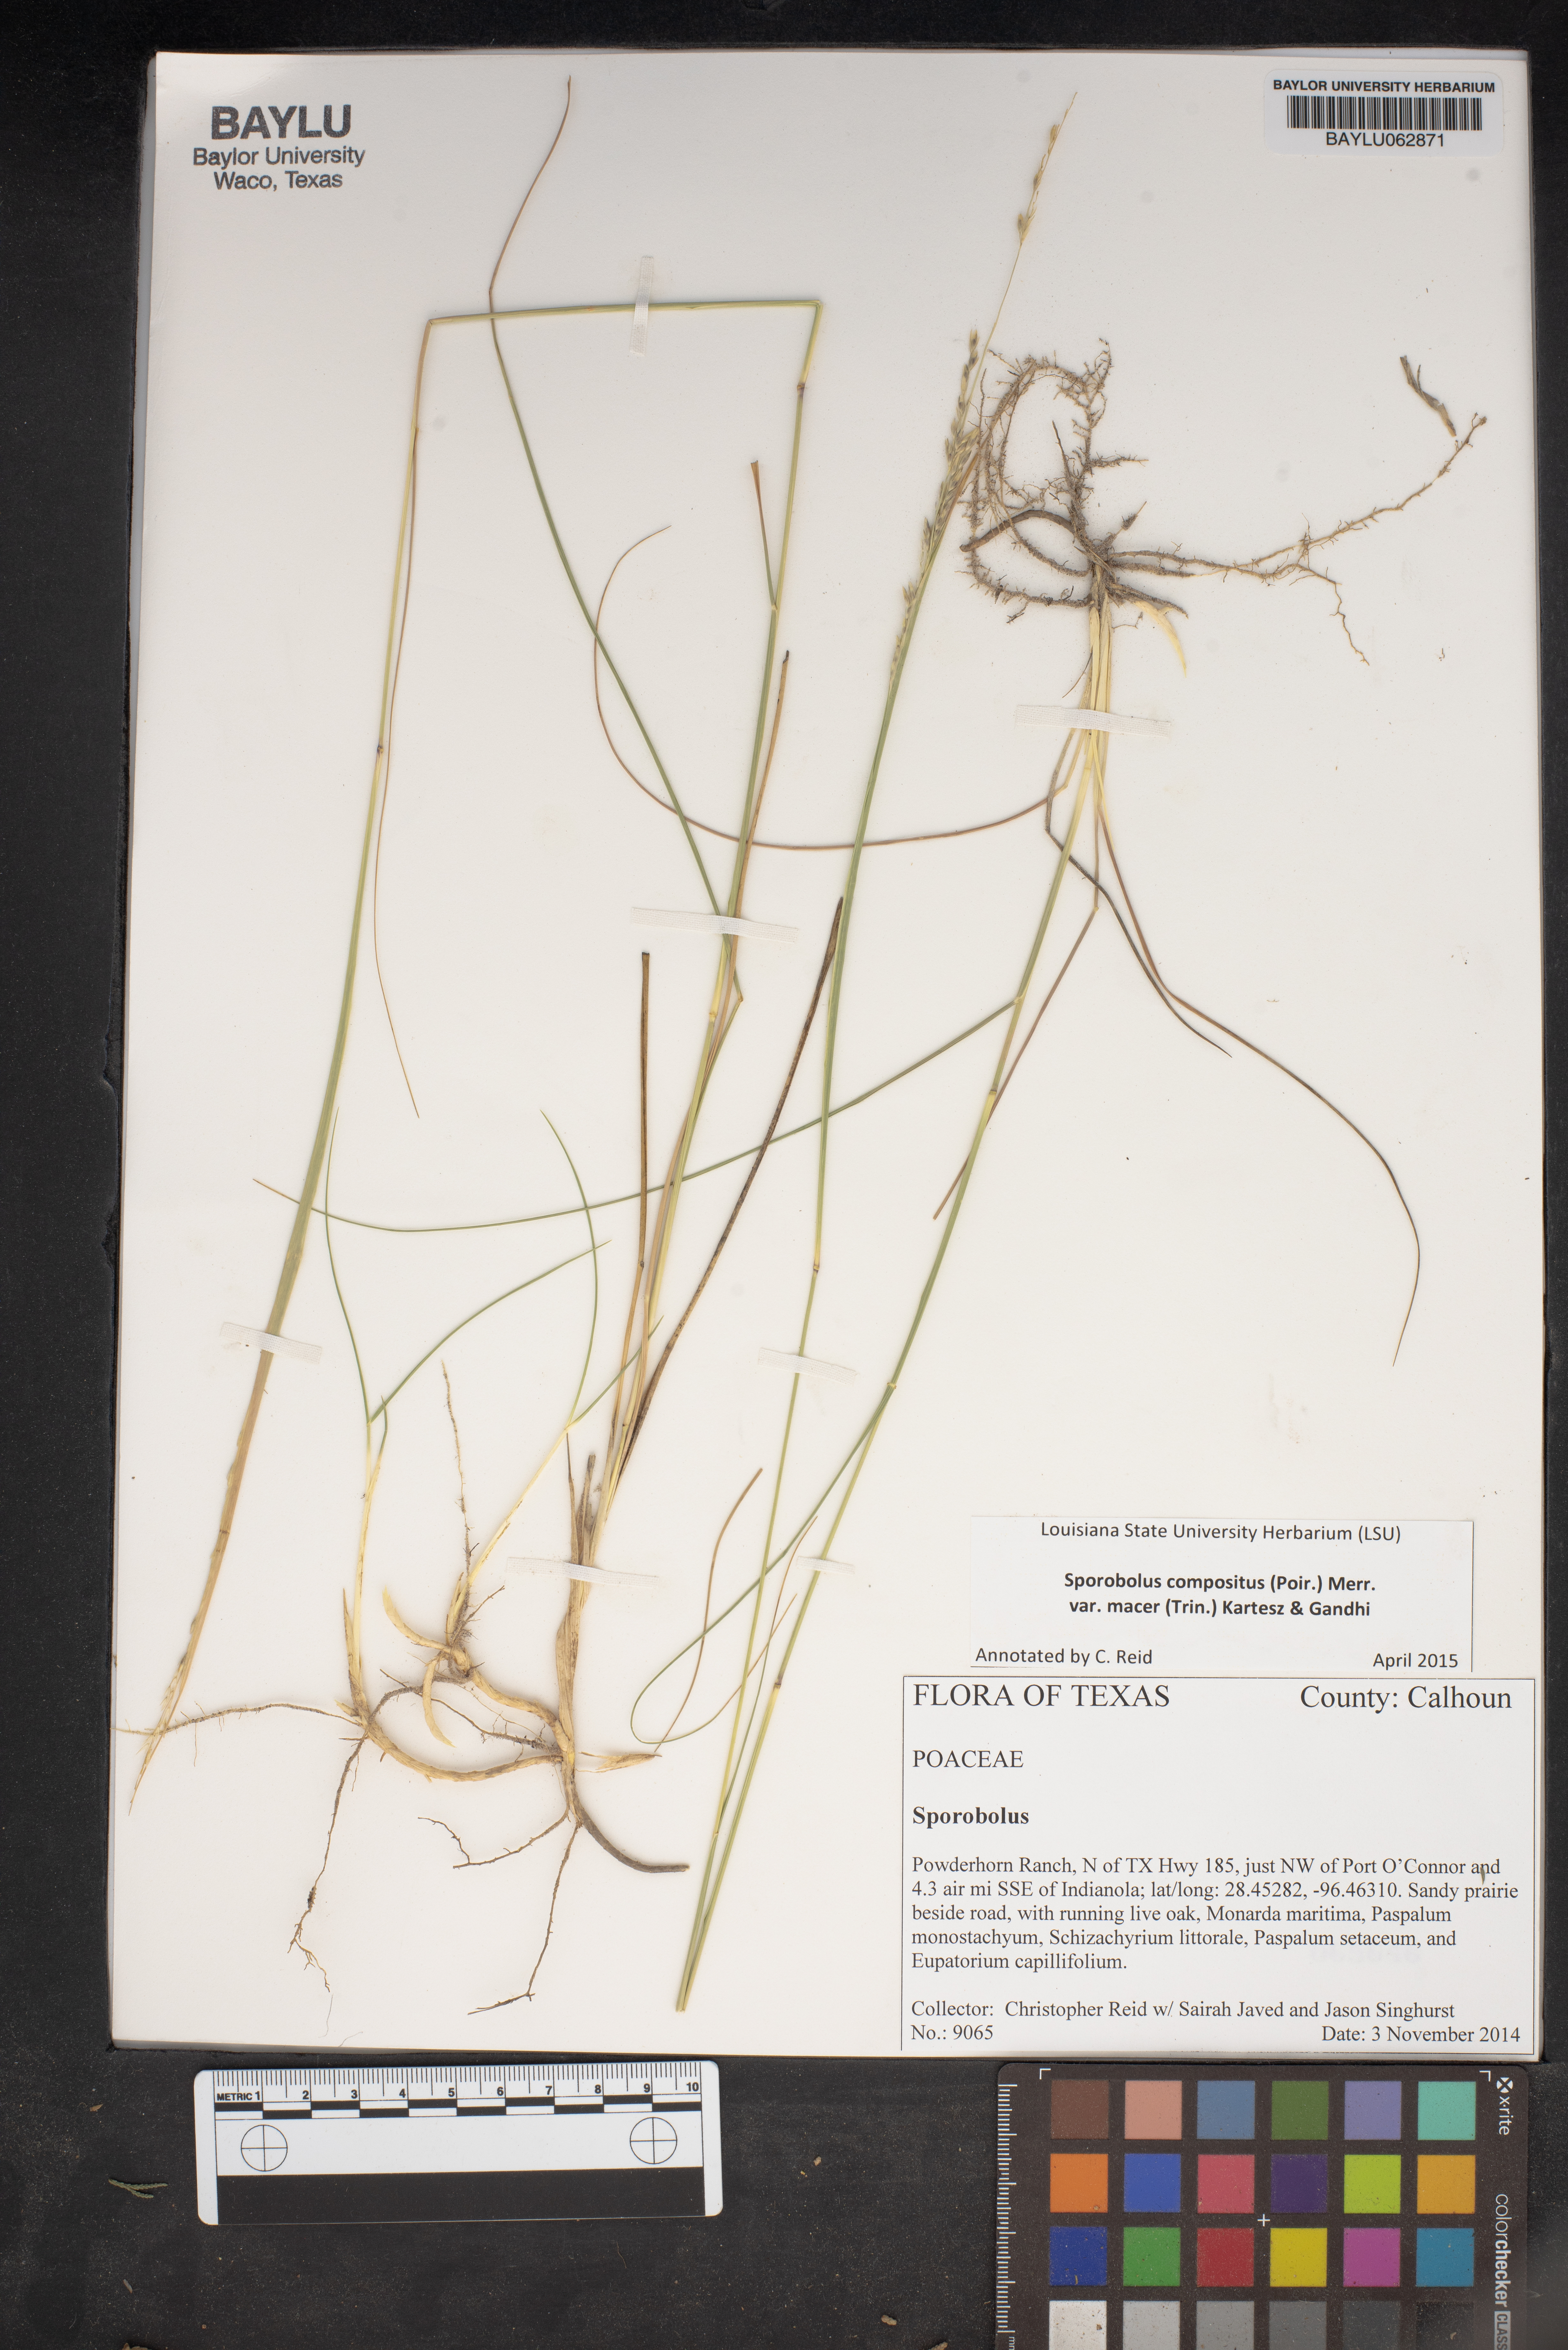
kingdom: Plantae
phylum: Tracheophyta
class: Liliopsida
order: Poales
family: Poaceae
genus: Sporobolus
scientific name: Sporobolus macer
